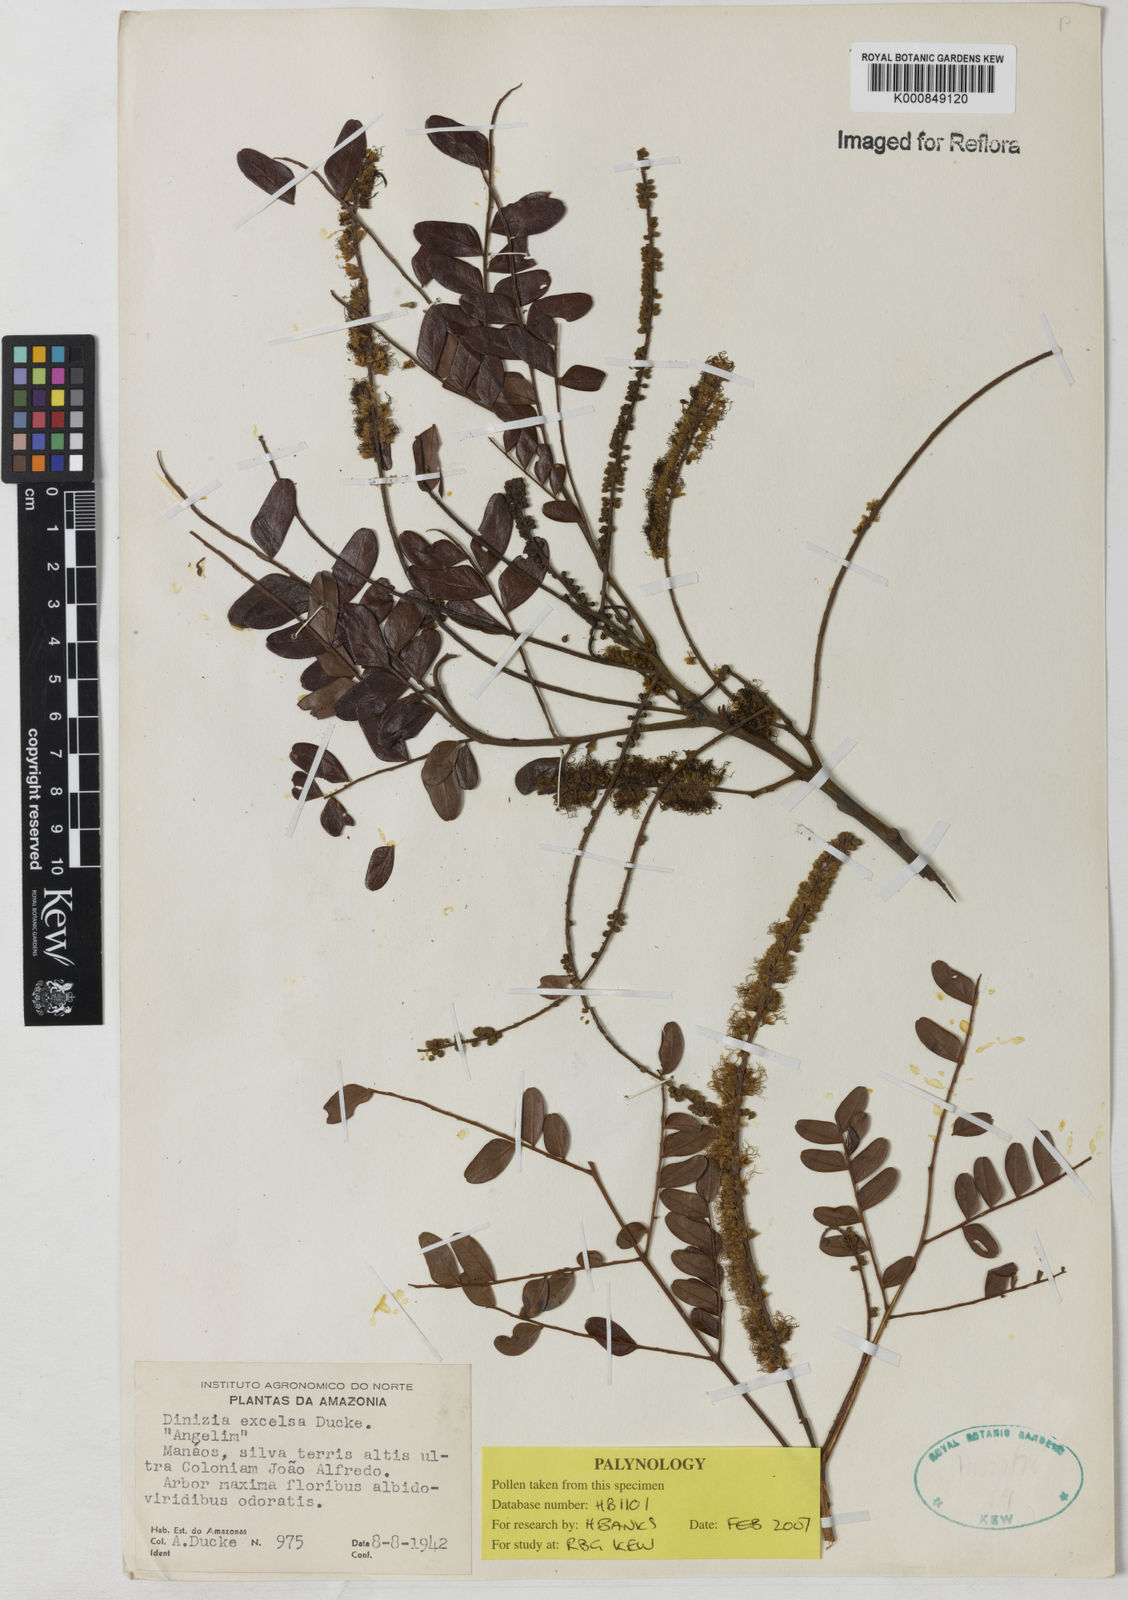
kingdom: Plantae
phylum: Tracheophyta
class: Magnoliopsida
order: Fabales
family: Fabaceae
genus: Dinizia
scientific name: Dinizia excelsa
